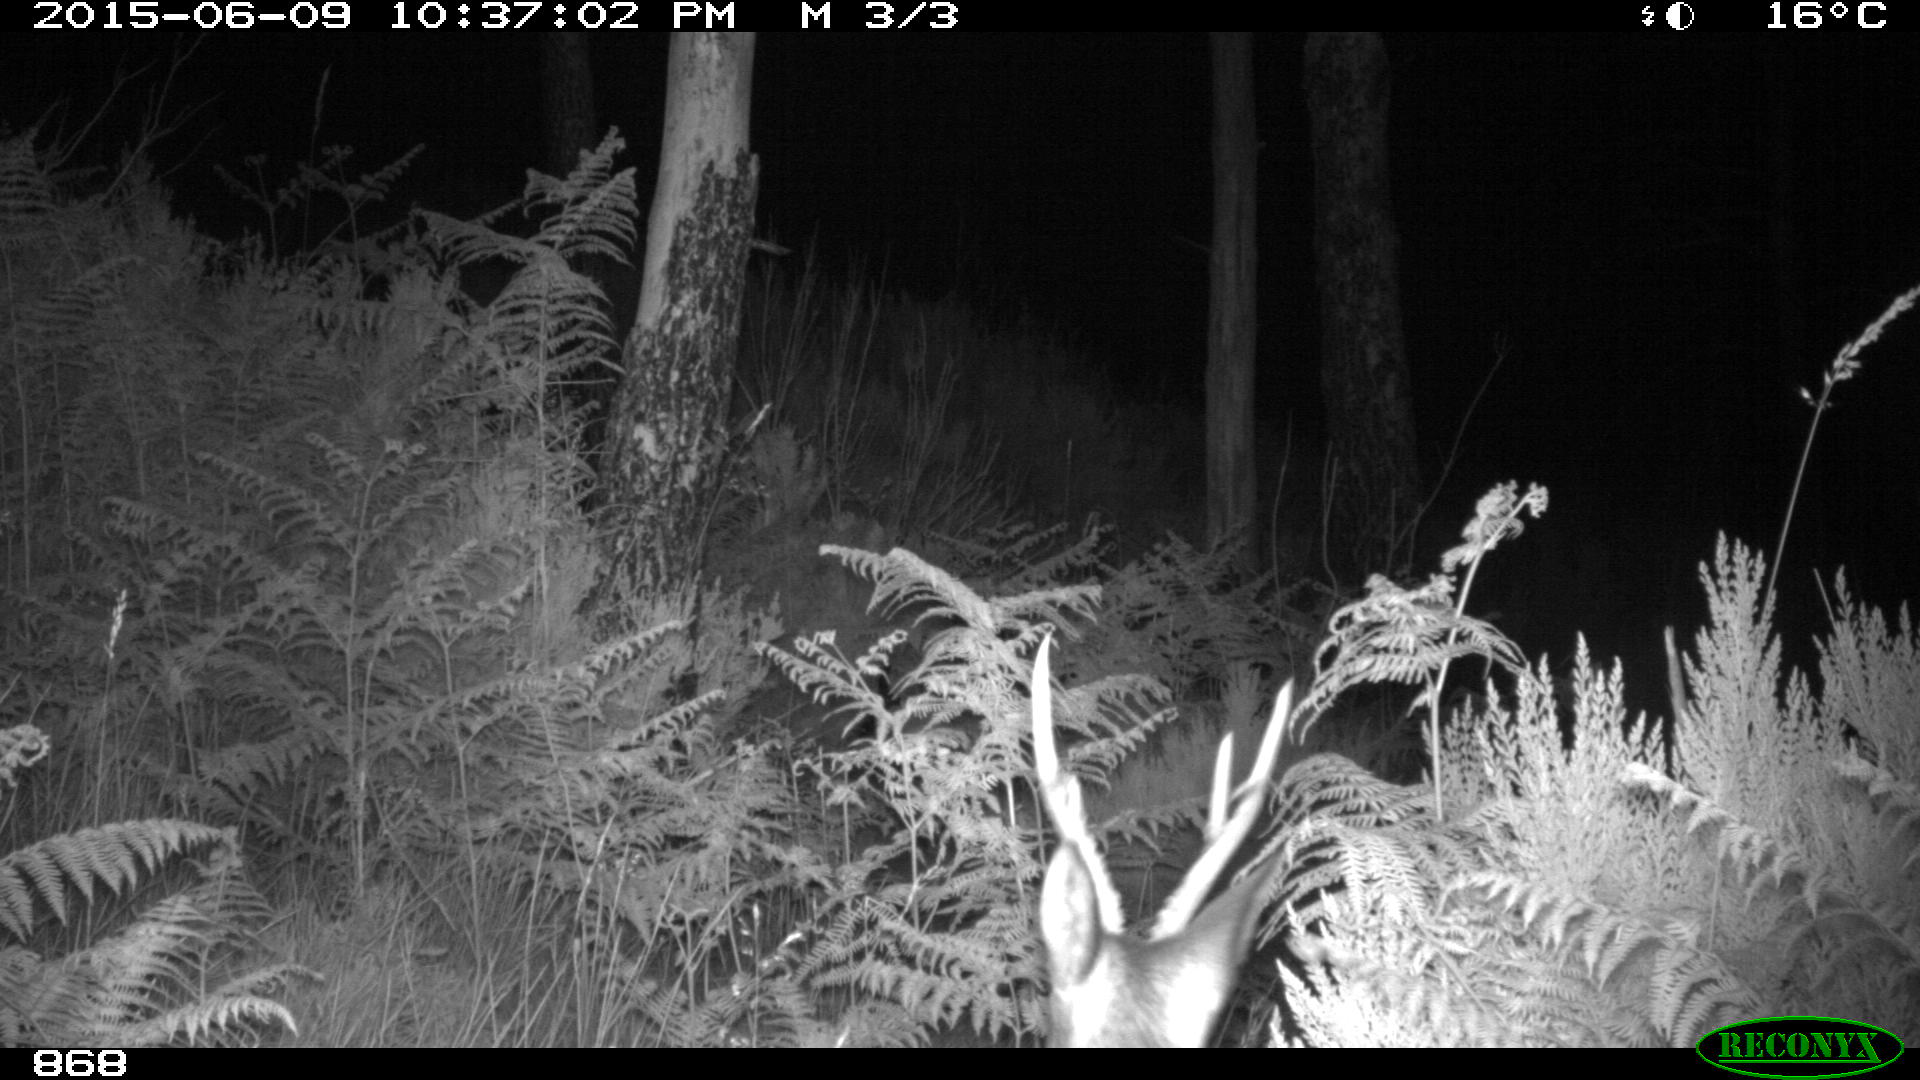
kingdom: Animalia
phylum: Chordata
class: Mammalia
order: Artiodactyla
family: Cervidae
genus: Capreolus
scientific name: Capreolus capreolus
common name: Western roe deer
